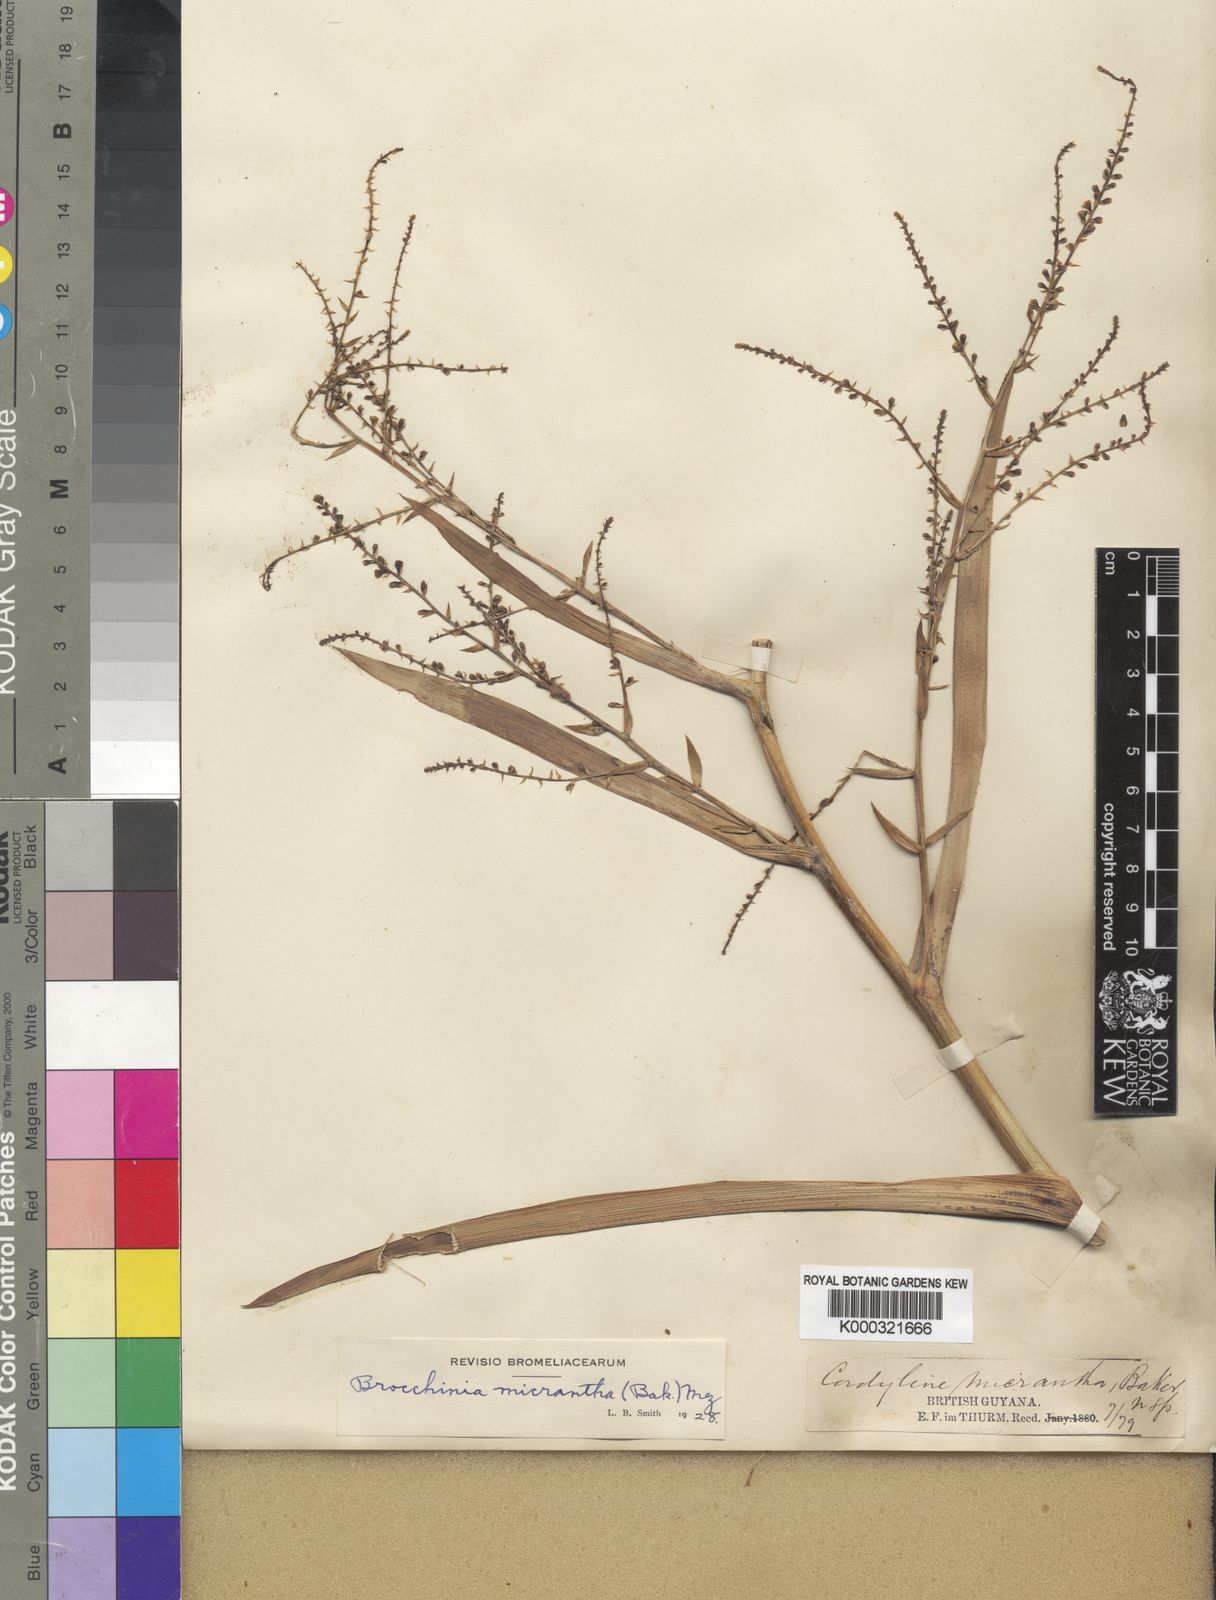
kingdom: Plantae
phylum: Tracheophyta
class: Liliopsida
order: Poales
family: Bromeliaceae
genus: Brocchinia
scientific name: Brocchinia micrantha
